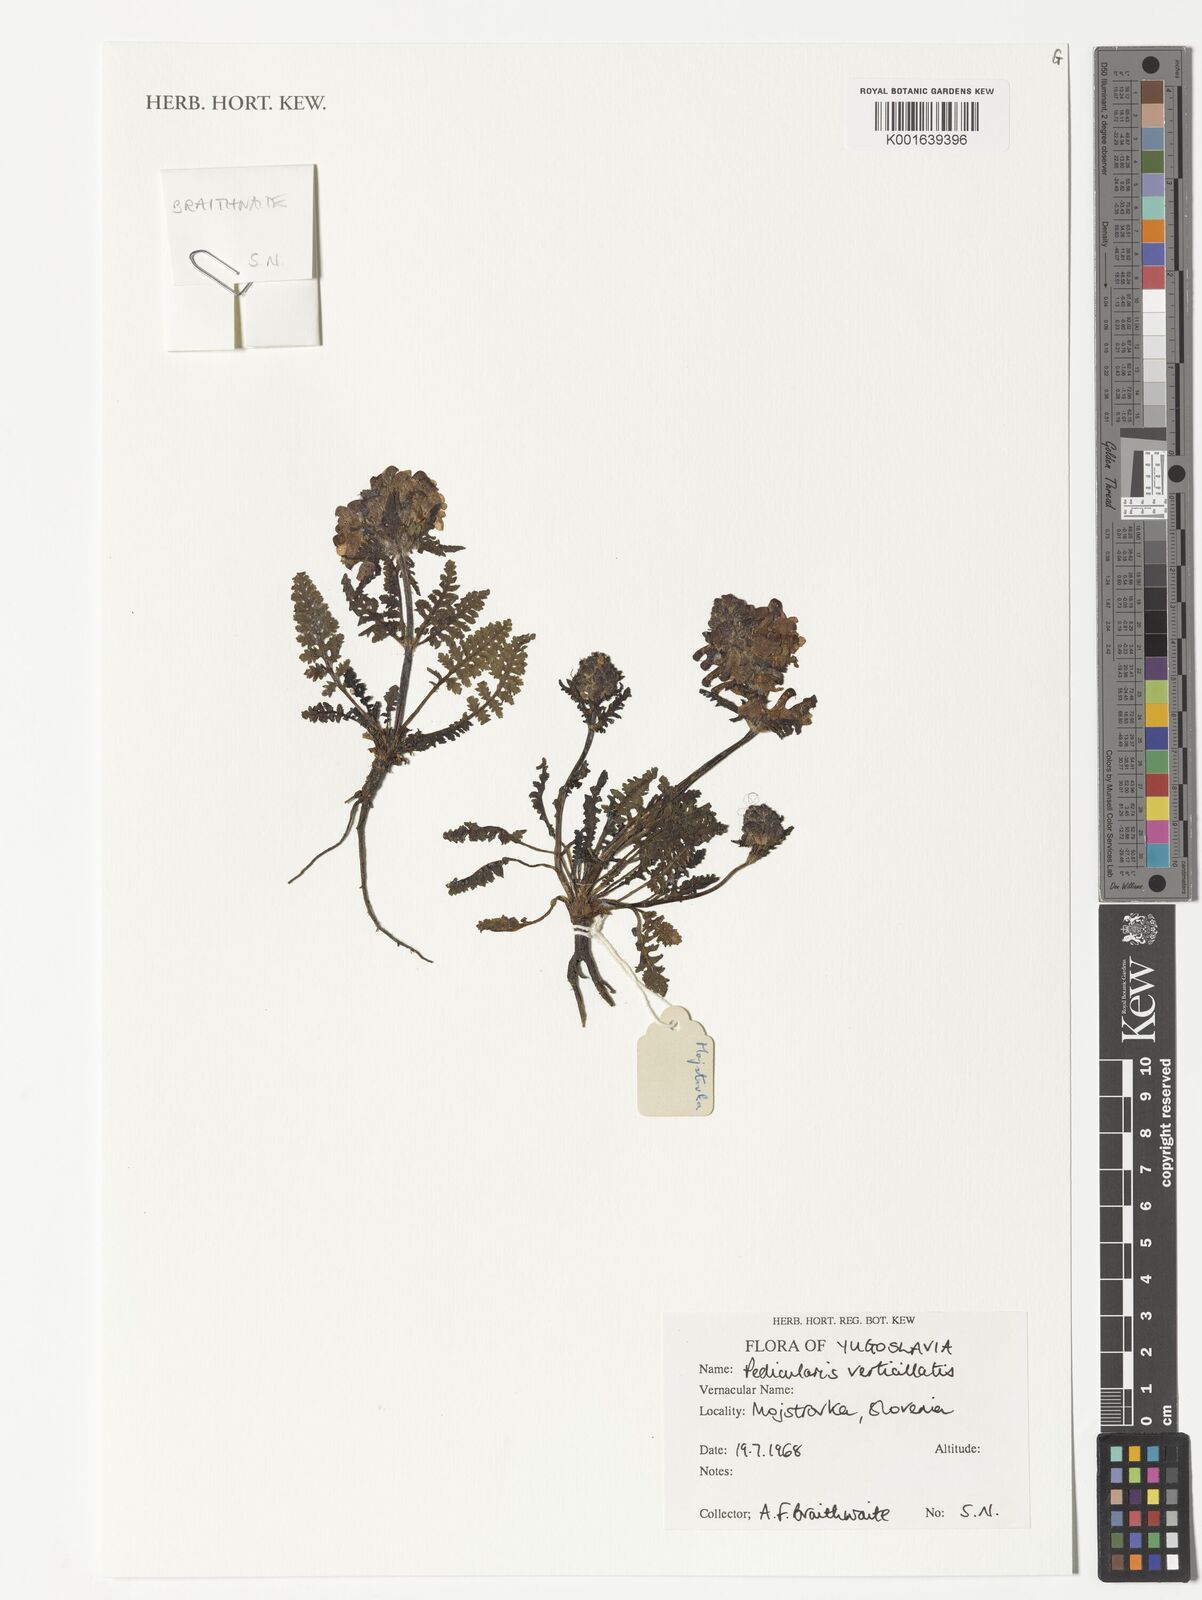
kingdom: Plantae
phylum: Tracheophyta
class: Magnoliopsida
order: Lamiales
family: Orobanchaceae
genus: Pedicularis
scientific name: Pedicularis verticillata
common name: Whorled lousewort
